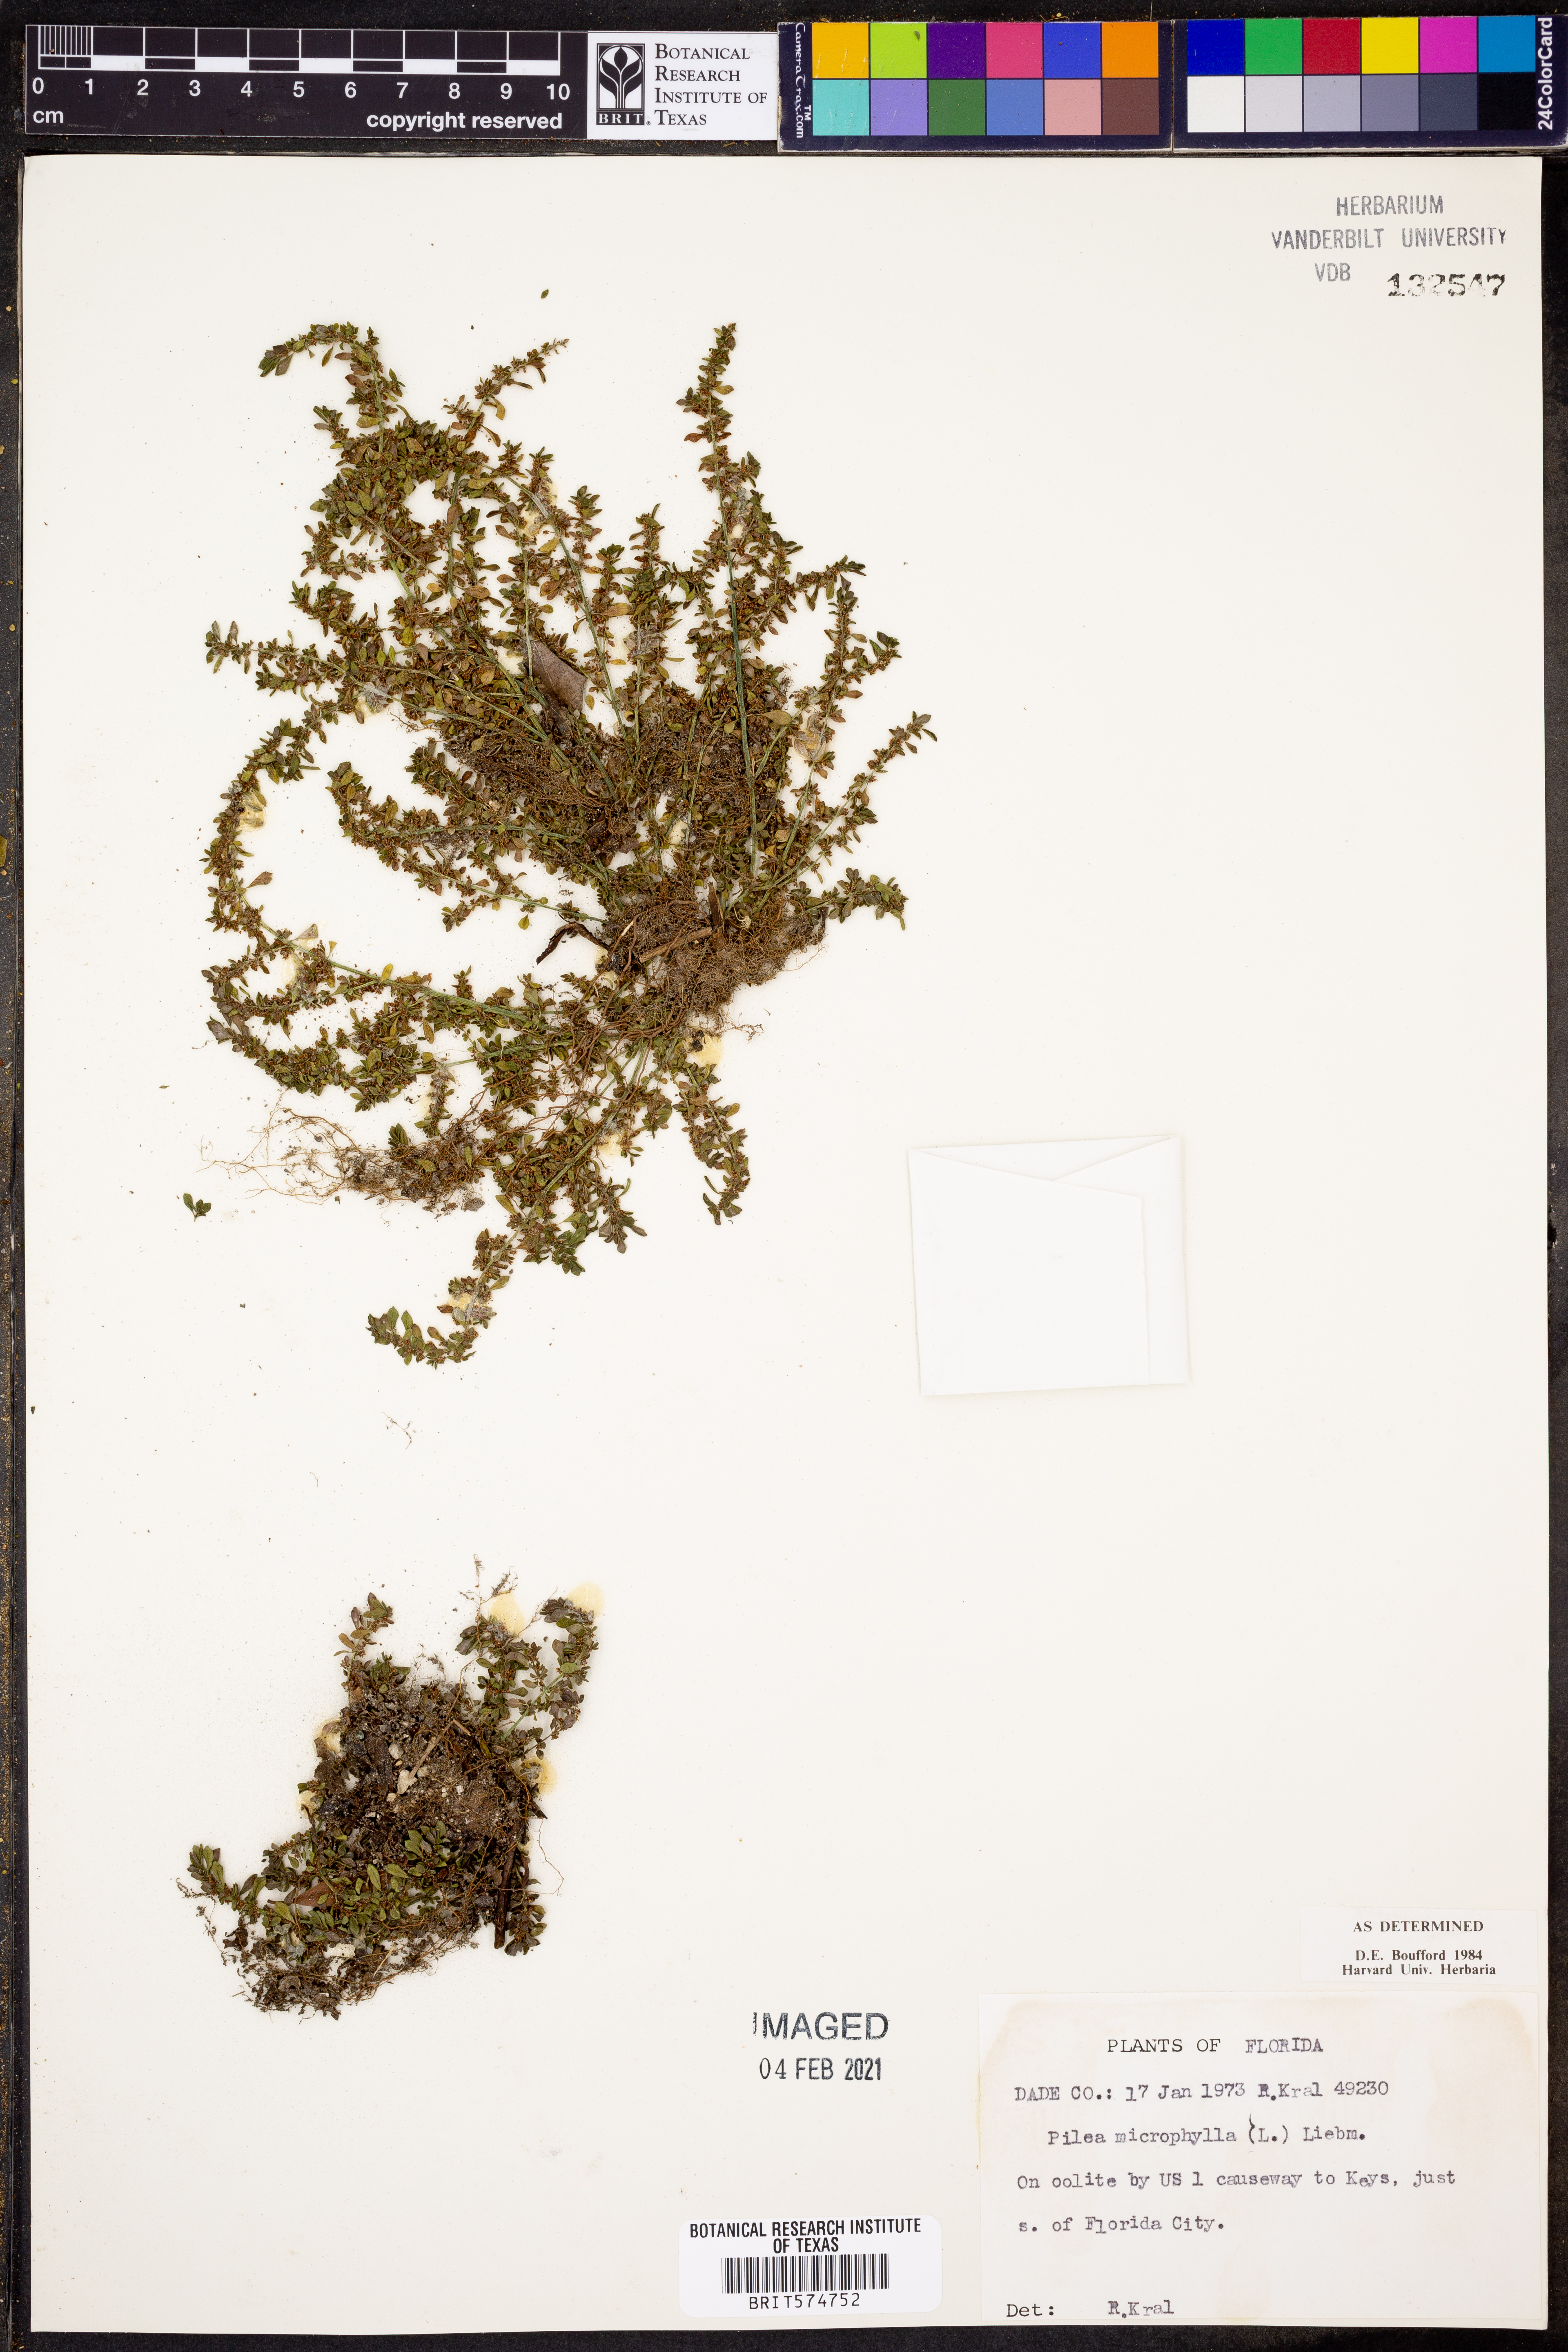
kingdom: Plantae
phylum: Tracheophyta
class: Magnoliopsida
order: Rosales
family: Urticaceae
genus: Pilea
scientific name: Pilea microphylla
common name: Artillery-plant
